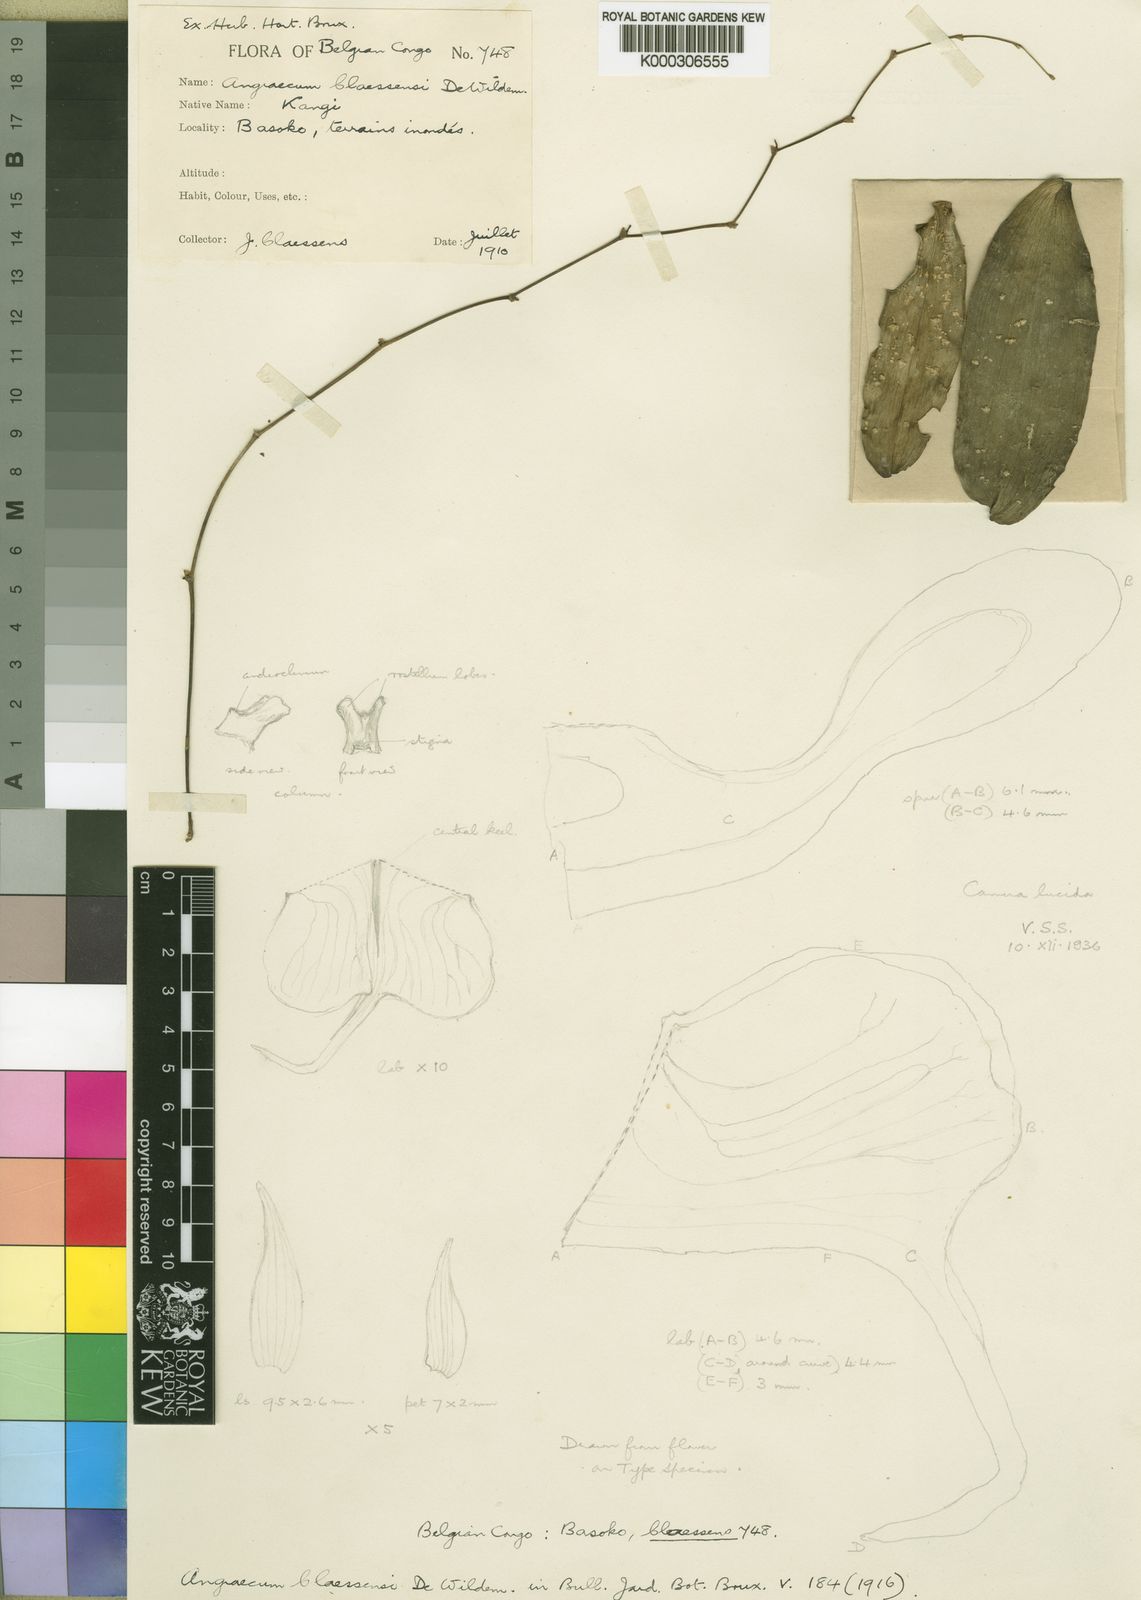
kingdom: Plantae
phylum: Tracheophyta
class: Liliopsida
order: Asparagales
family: Orchidaceae
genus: Angraecum
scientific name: Angraecum claessensii
